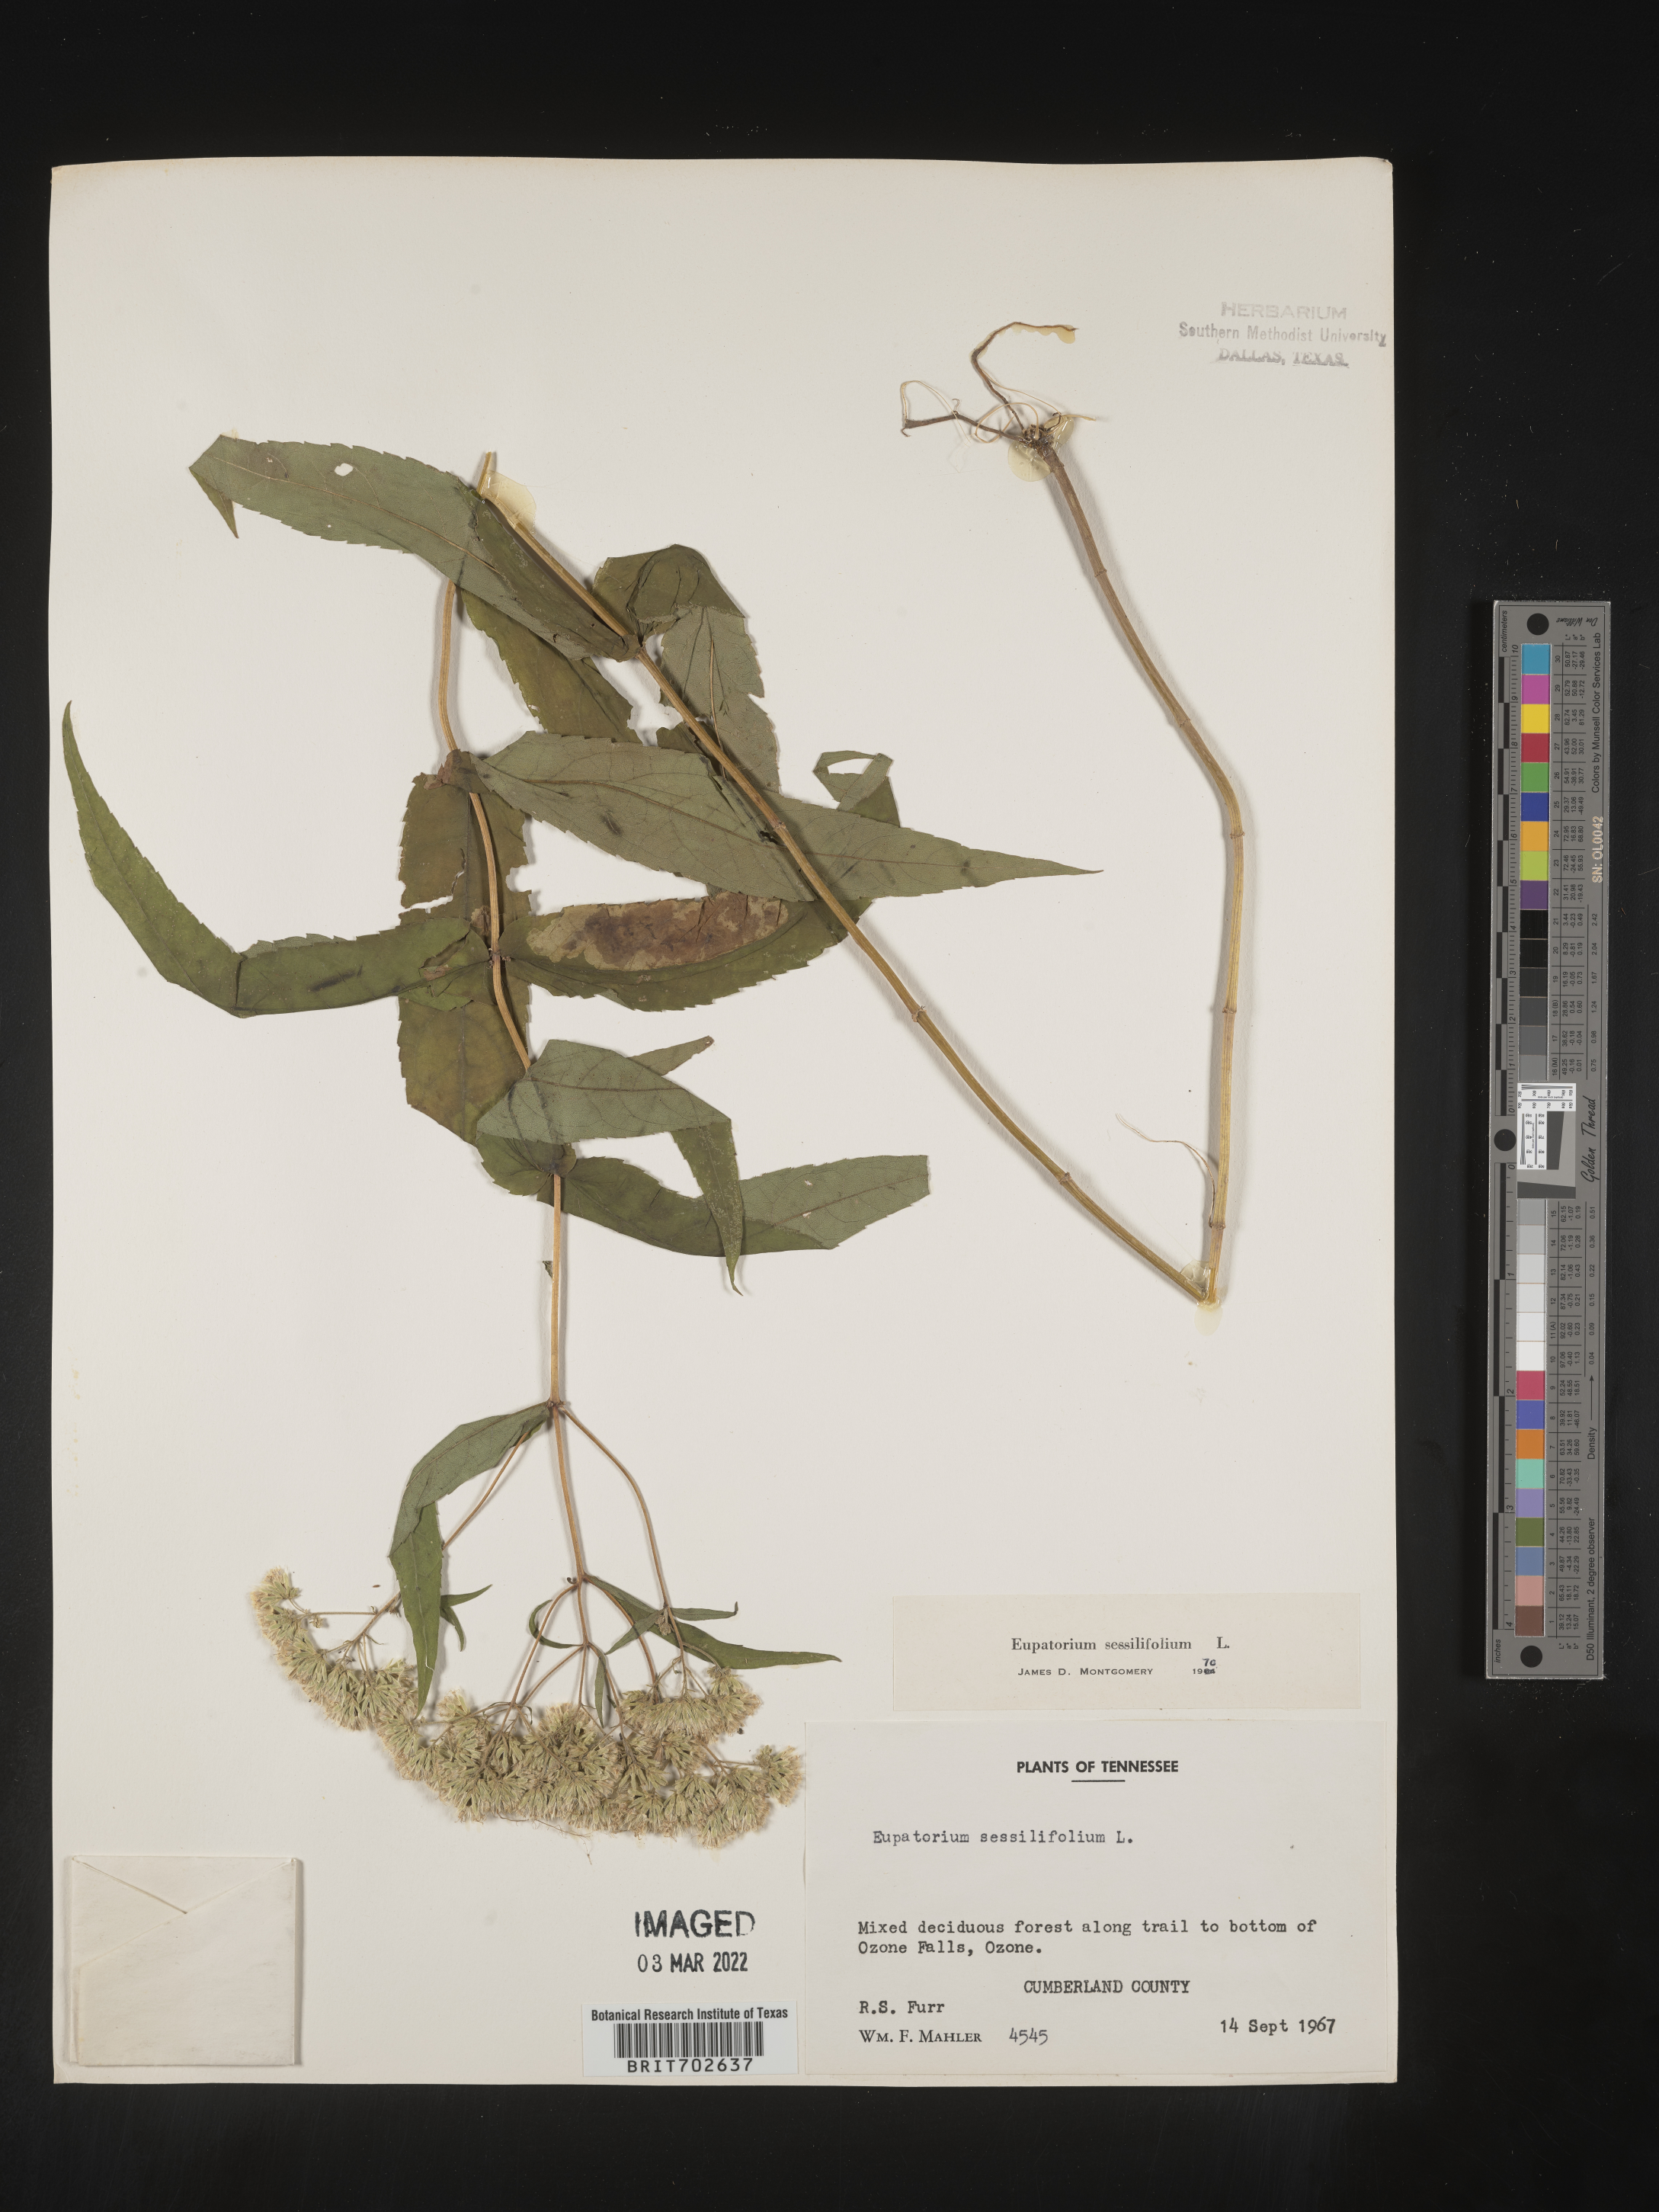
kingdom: Plantae
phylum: Tracheophyta
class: Magnoliopsida
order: Asterales
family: Asteraceae
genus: Eupatorium
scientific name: Eupatorium sessilifolium
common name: Upland boneset
